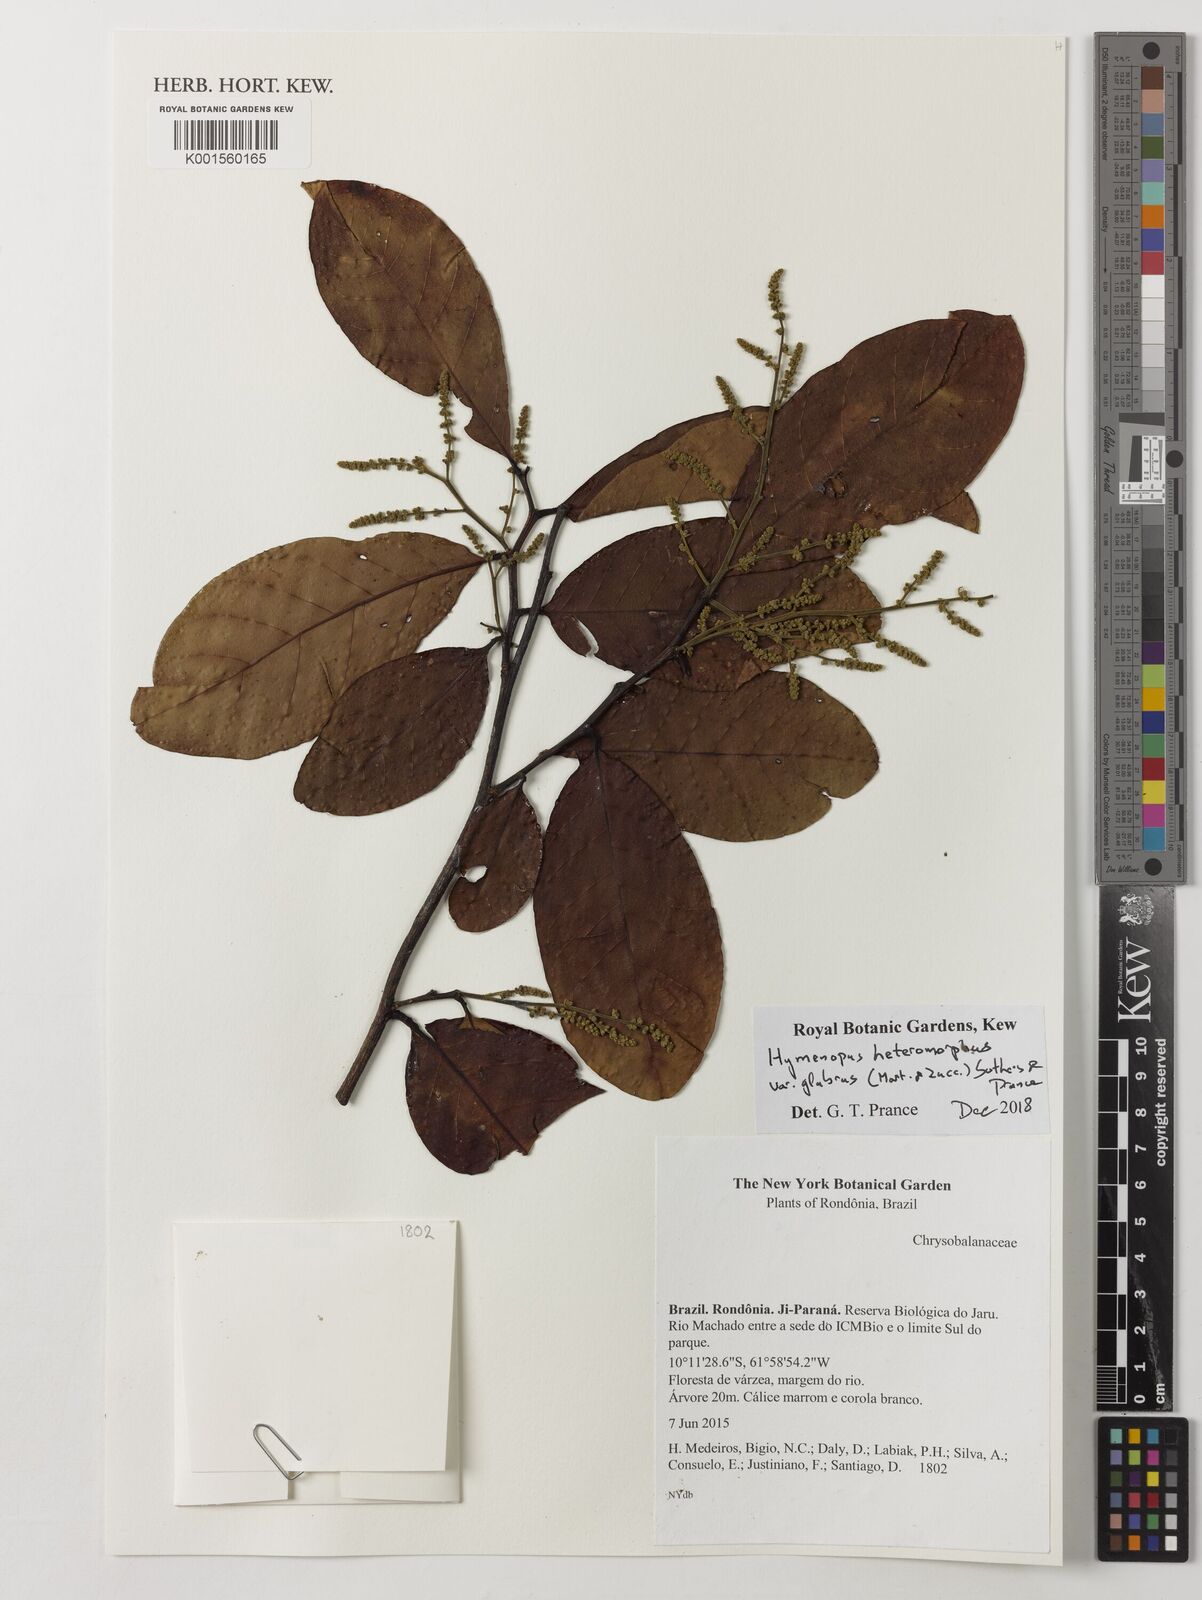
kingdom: Plantae
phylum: Tracheophyta
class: Magnoliopsida
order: Malpighiales
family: Chrysobalanaceae
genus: Hymenopus
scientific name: Hymenopus heteromorphus
